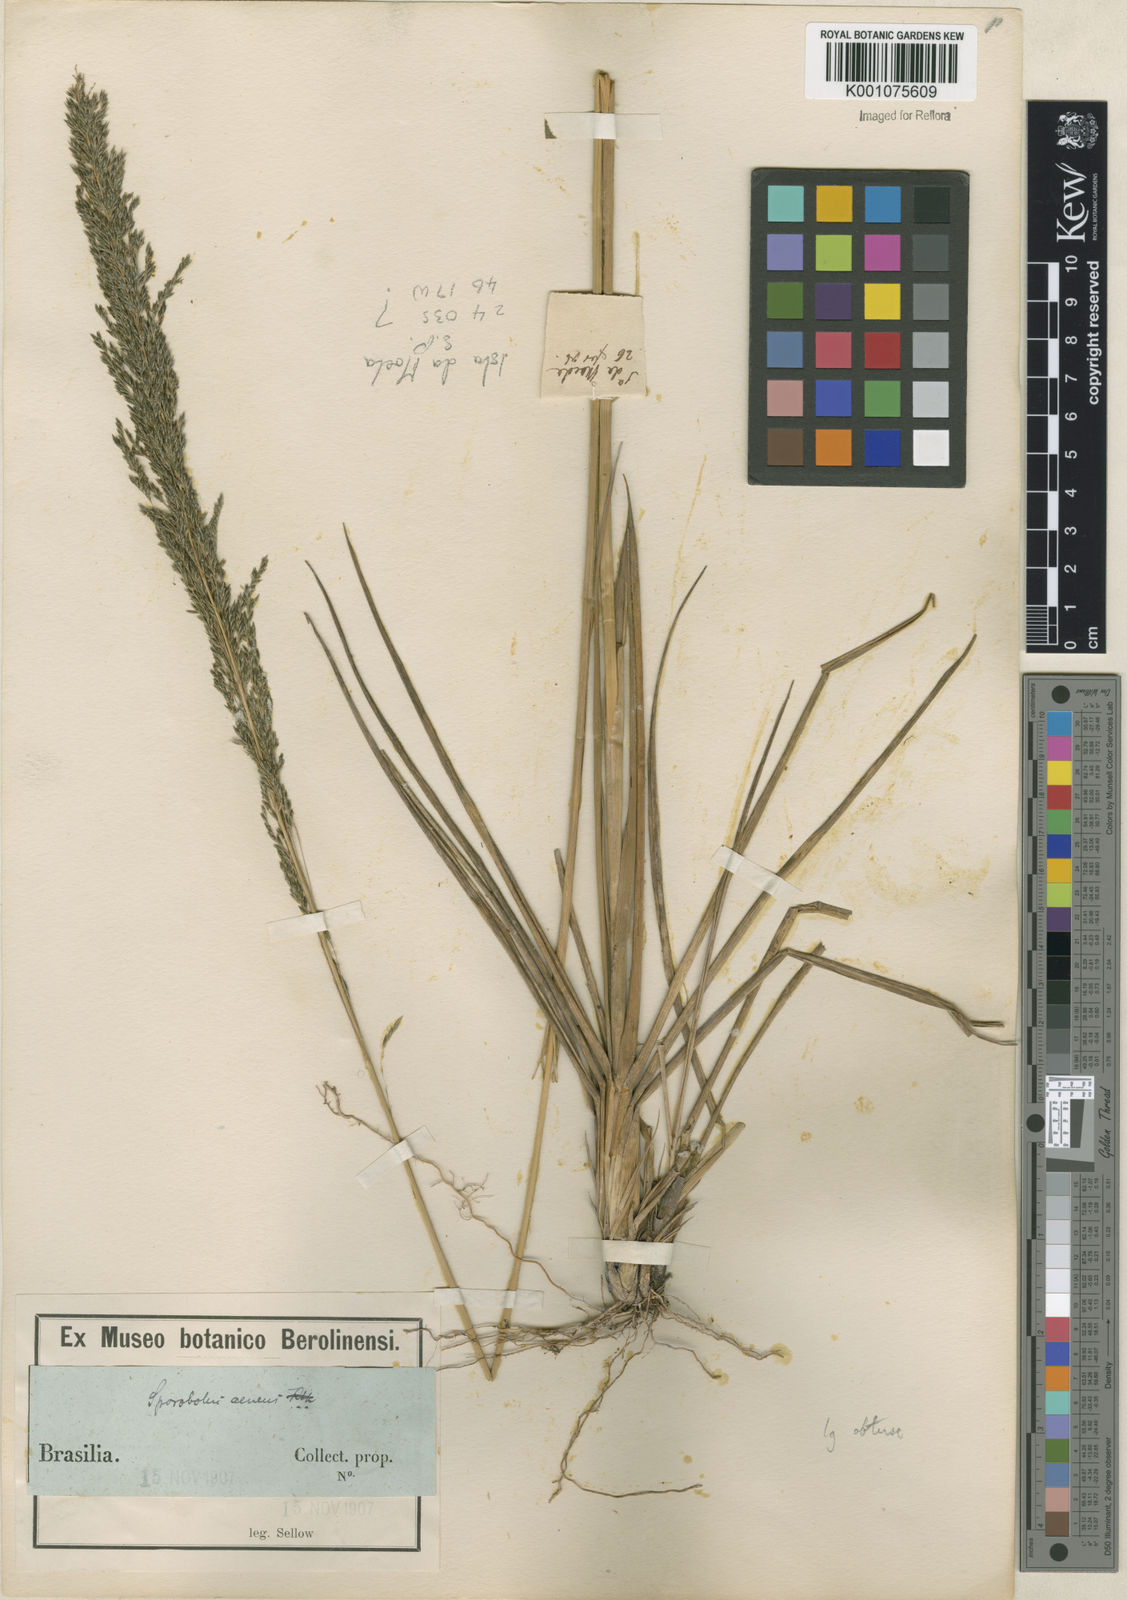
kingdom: Plantae
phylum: Tracheophyta
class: Liliopsida
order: Poales
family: Poaceae
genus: Sporobolus
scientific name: Sporobolus
